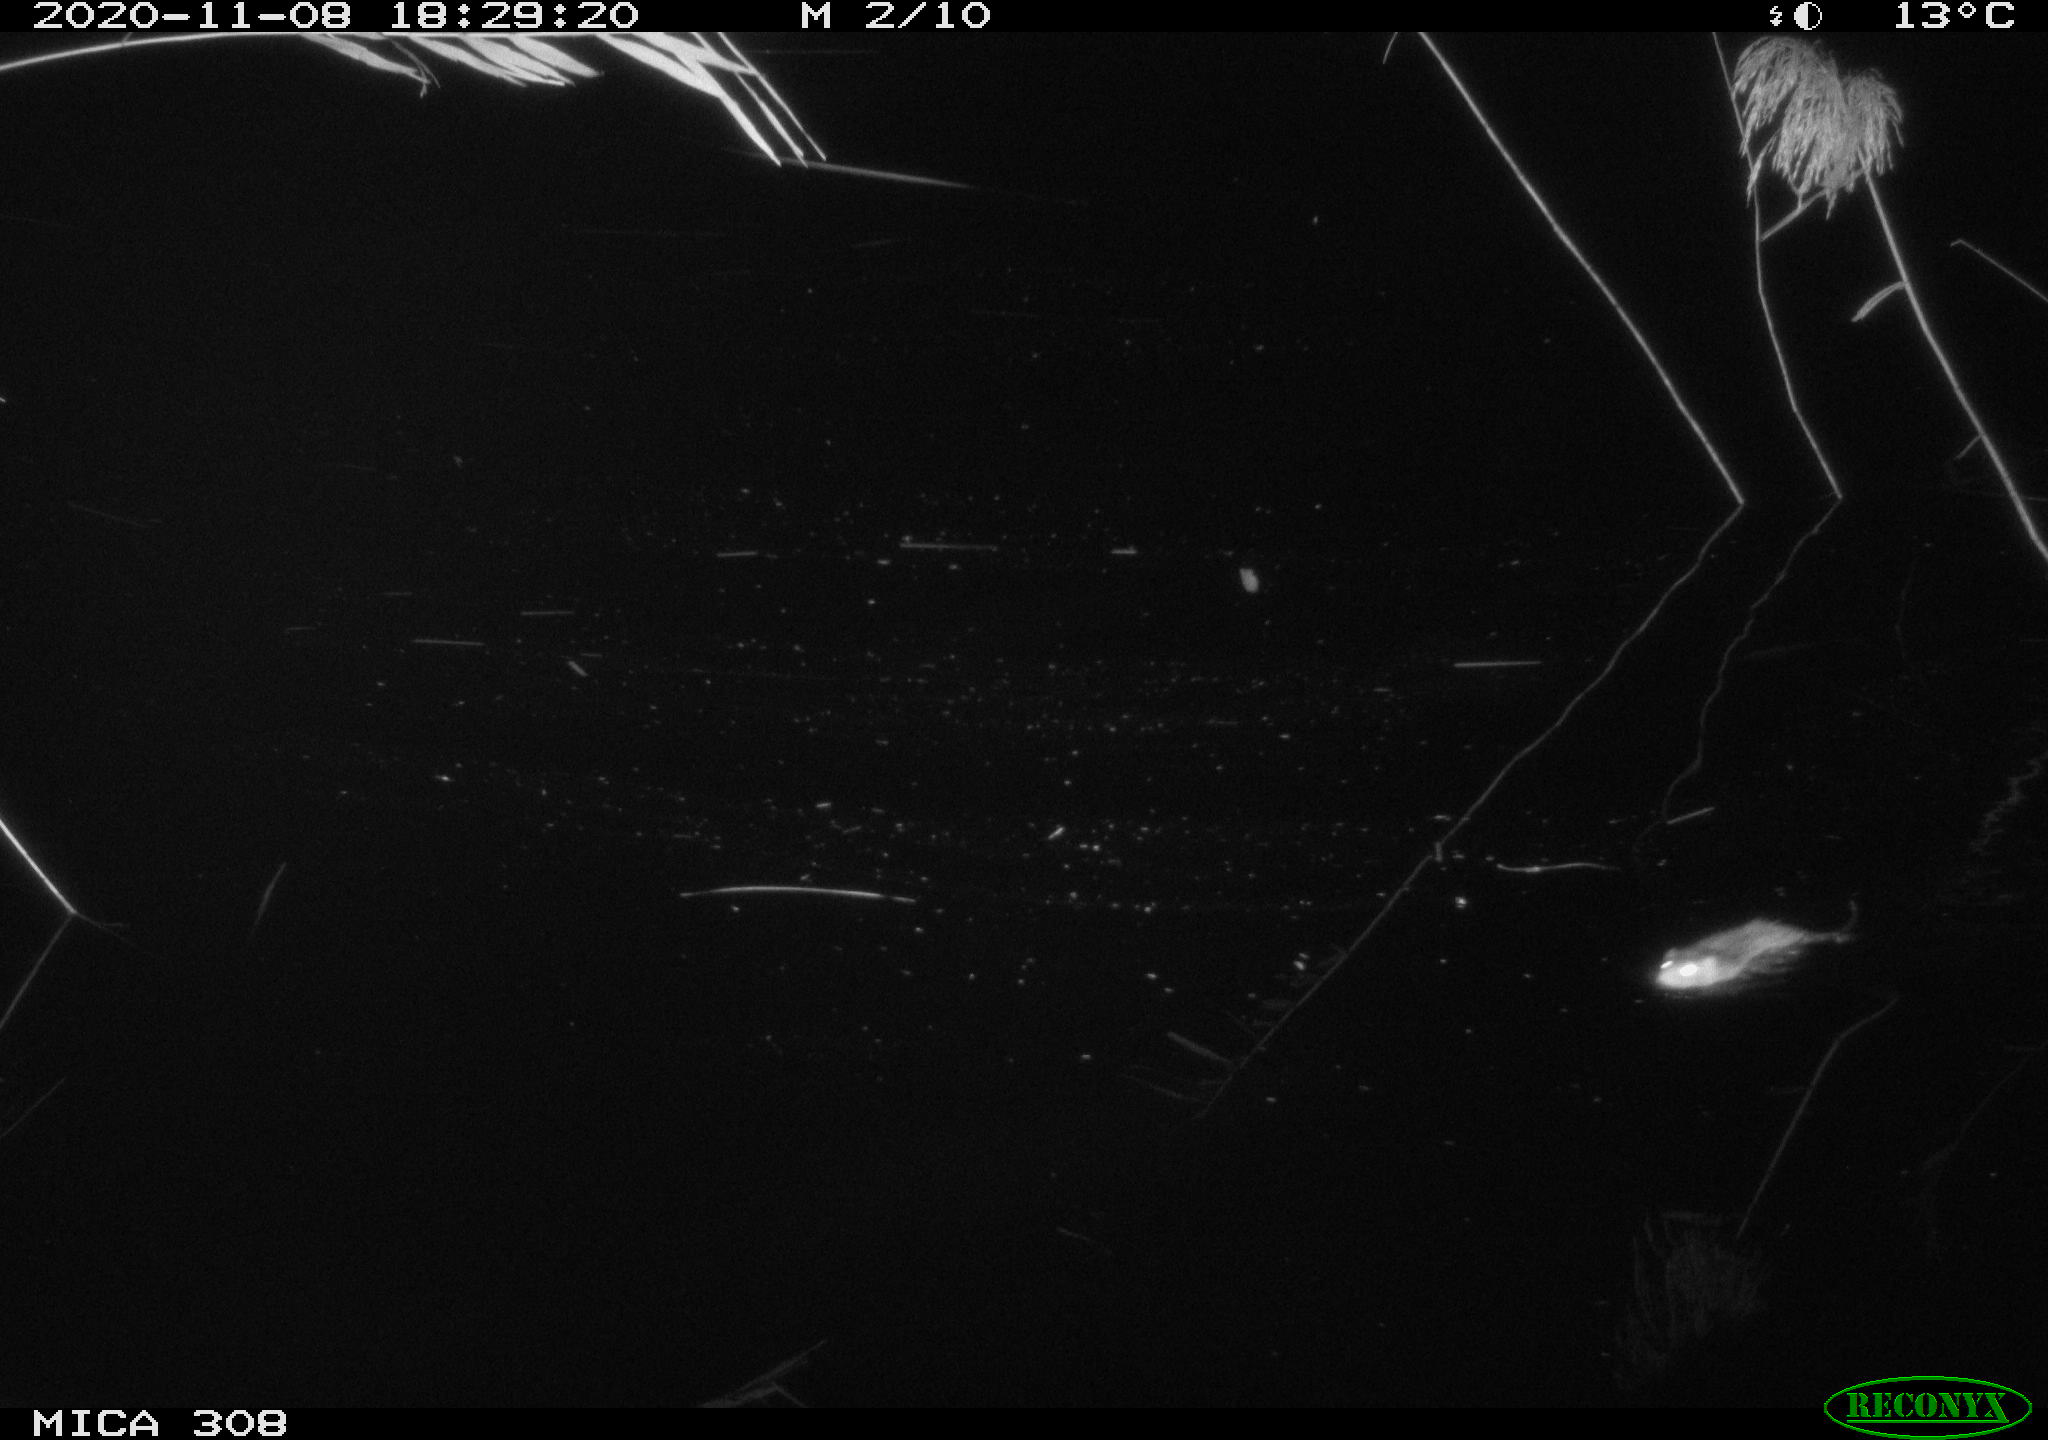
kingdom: Animalia
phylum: Chordata
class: Mammalia
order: Rodentia
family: Cricetidae
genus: Ondatra
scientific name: Ondatra zibethicus
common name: Muskrat
